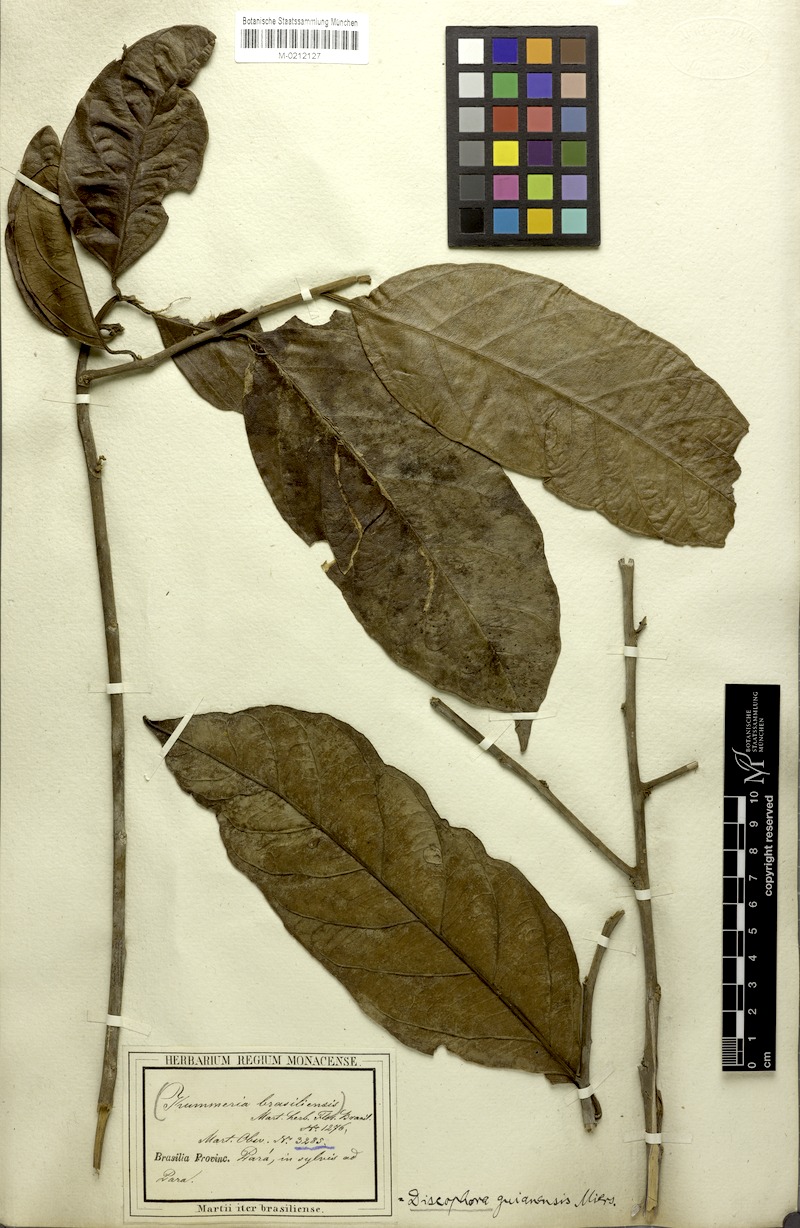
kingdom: Plantae
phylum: Tracheophyta
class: Magnoliopsida
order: Cardiopteridales
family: Stemonuraceae
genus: Discophora
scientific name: Discophora guianensis
